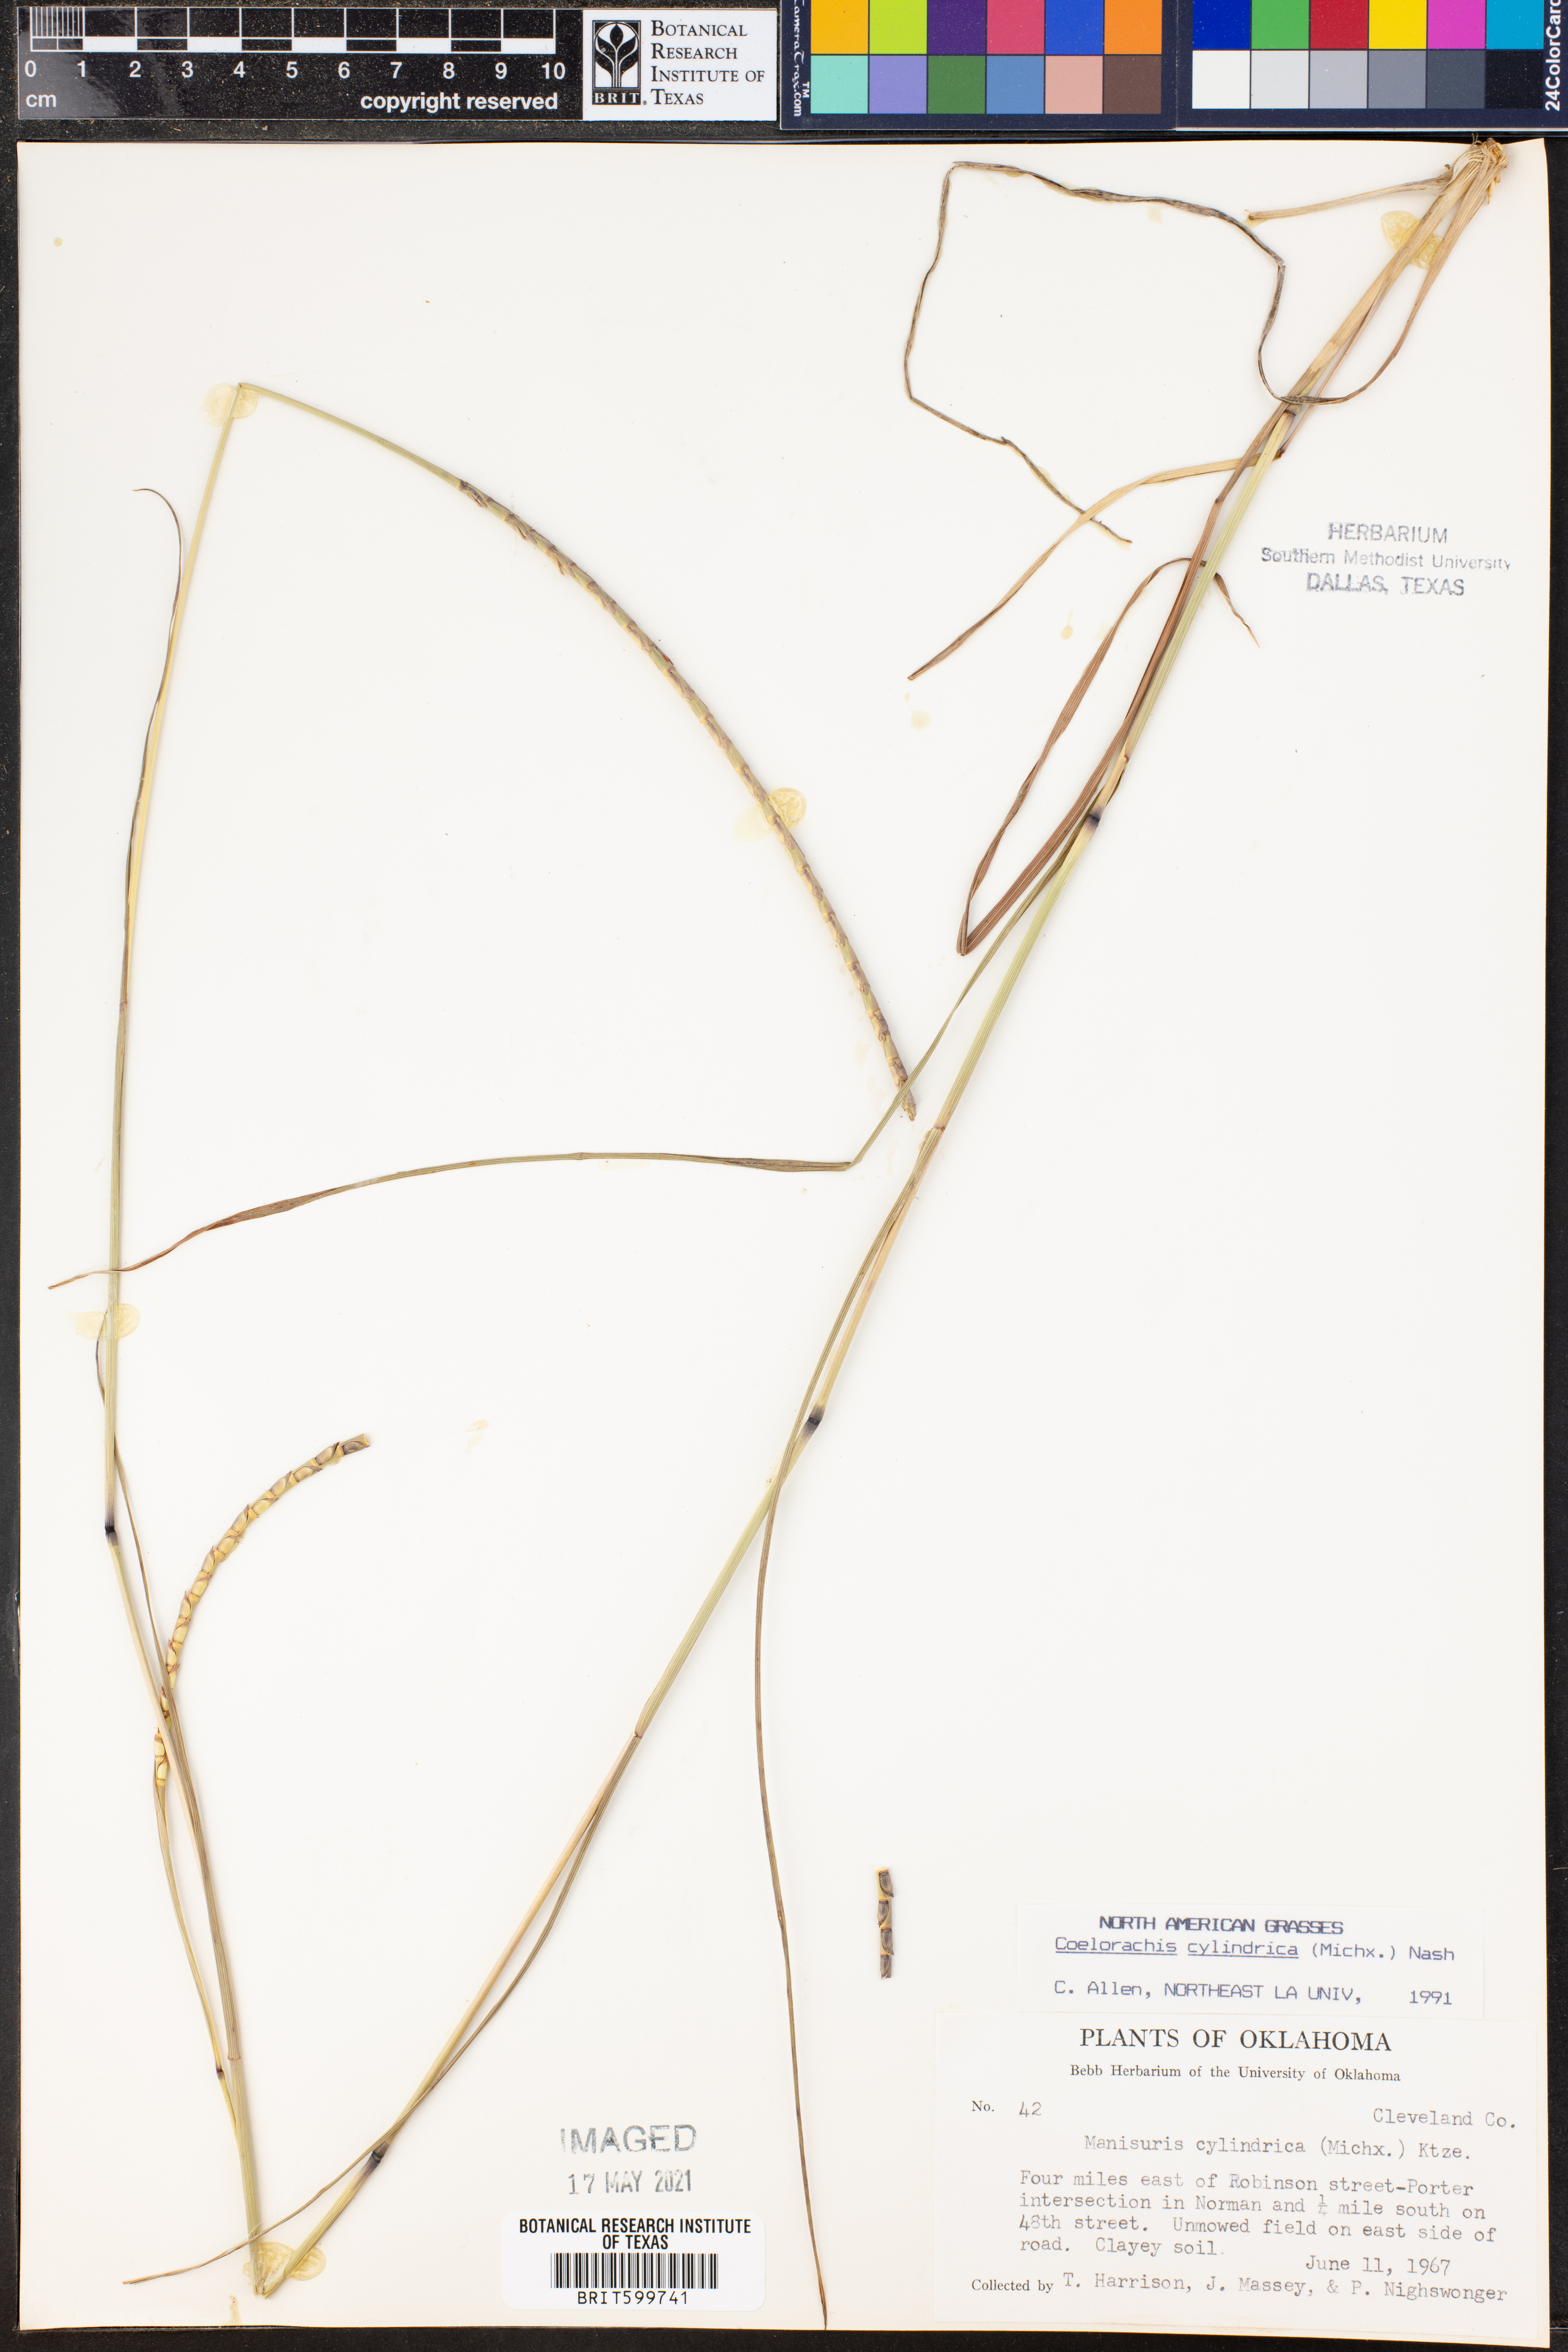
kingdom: Plantae
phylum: Tracheophyta
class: Liliopsida
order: Poales
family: Poaceae
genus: Rottboellia
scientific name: Rottboellia campestris
